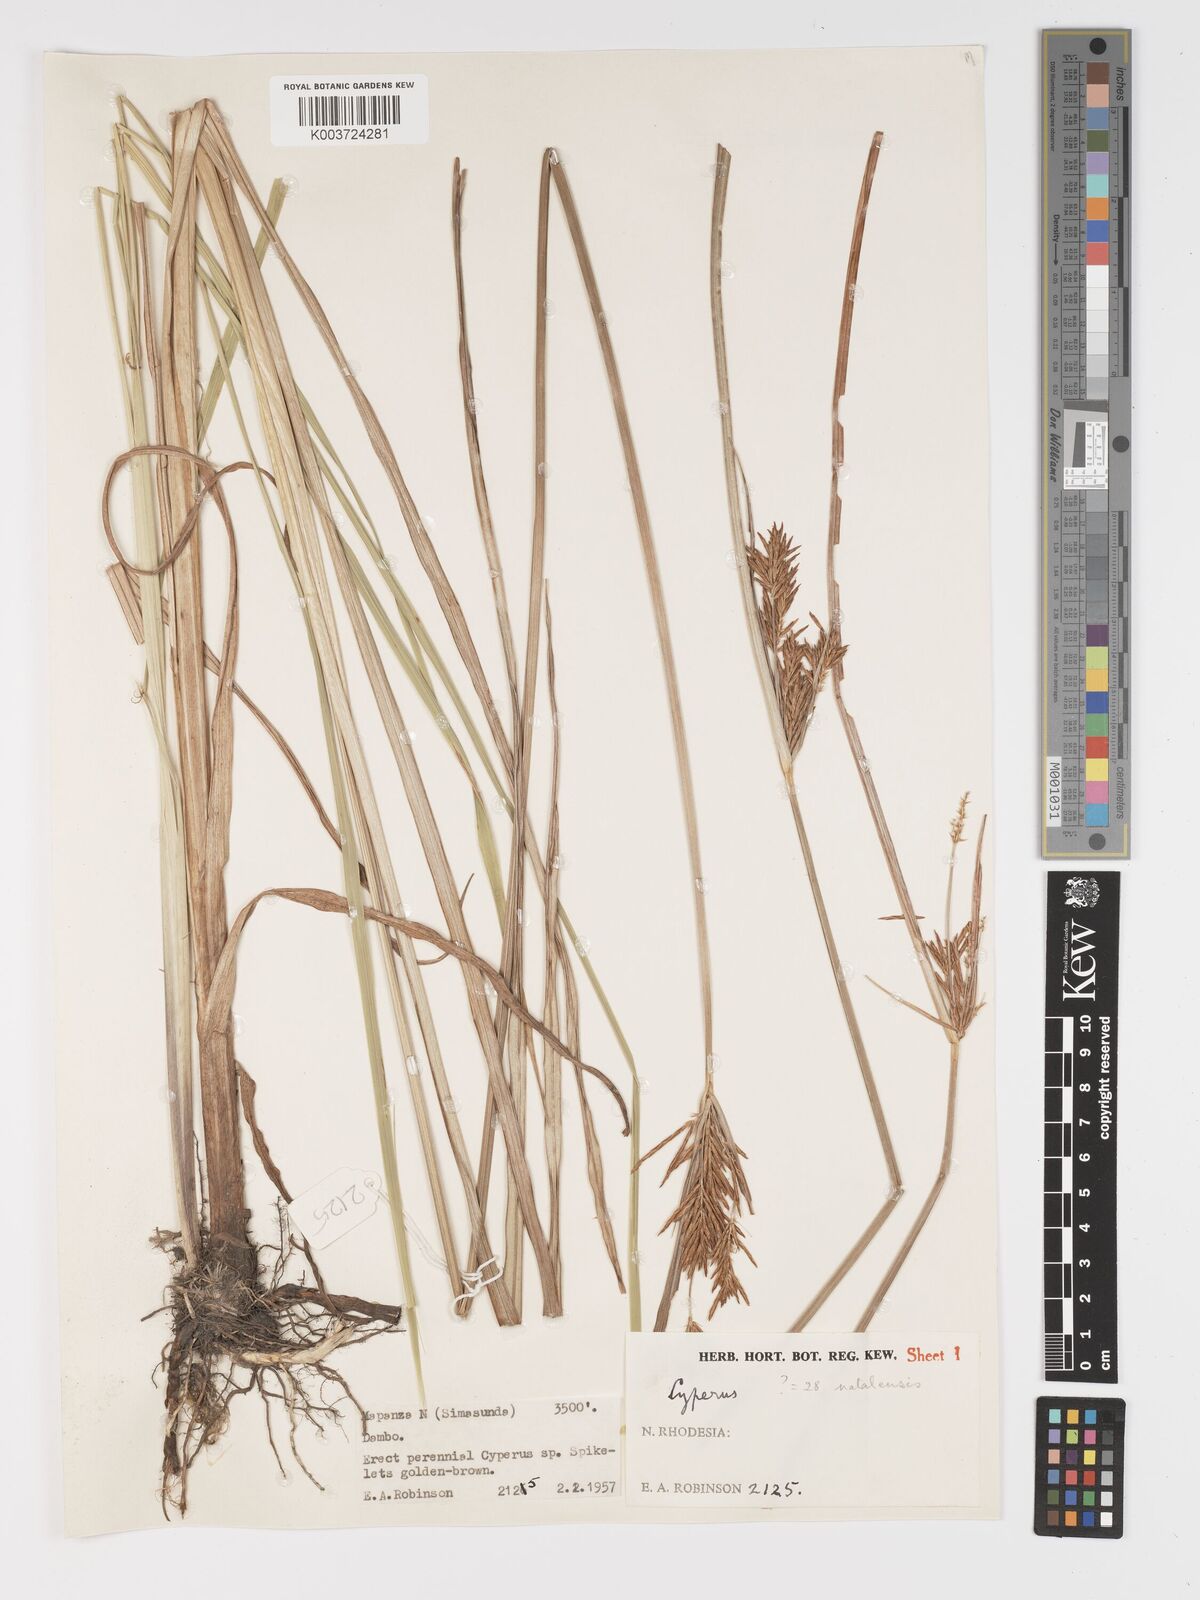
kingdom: Plantae
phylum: Tracheophyta
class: Liliopsida
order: Poales
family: Cyperaceae
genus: Cyperus
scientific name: Cyperus
